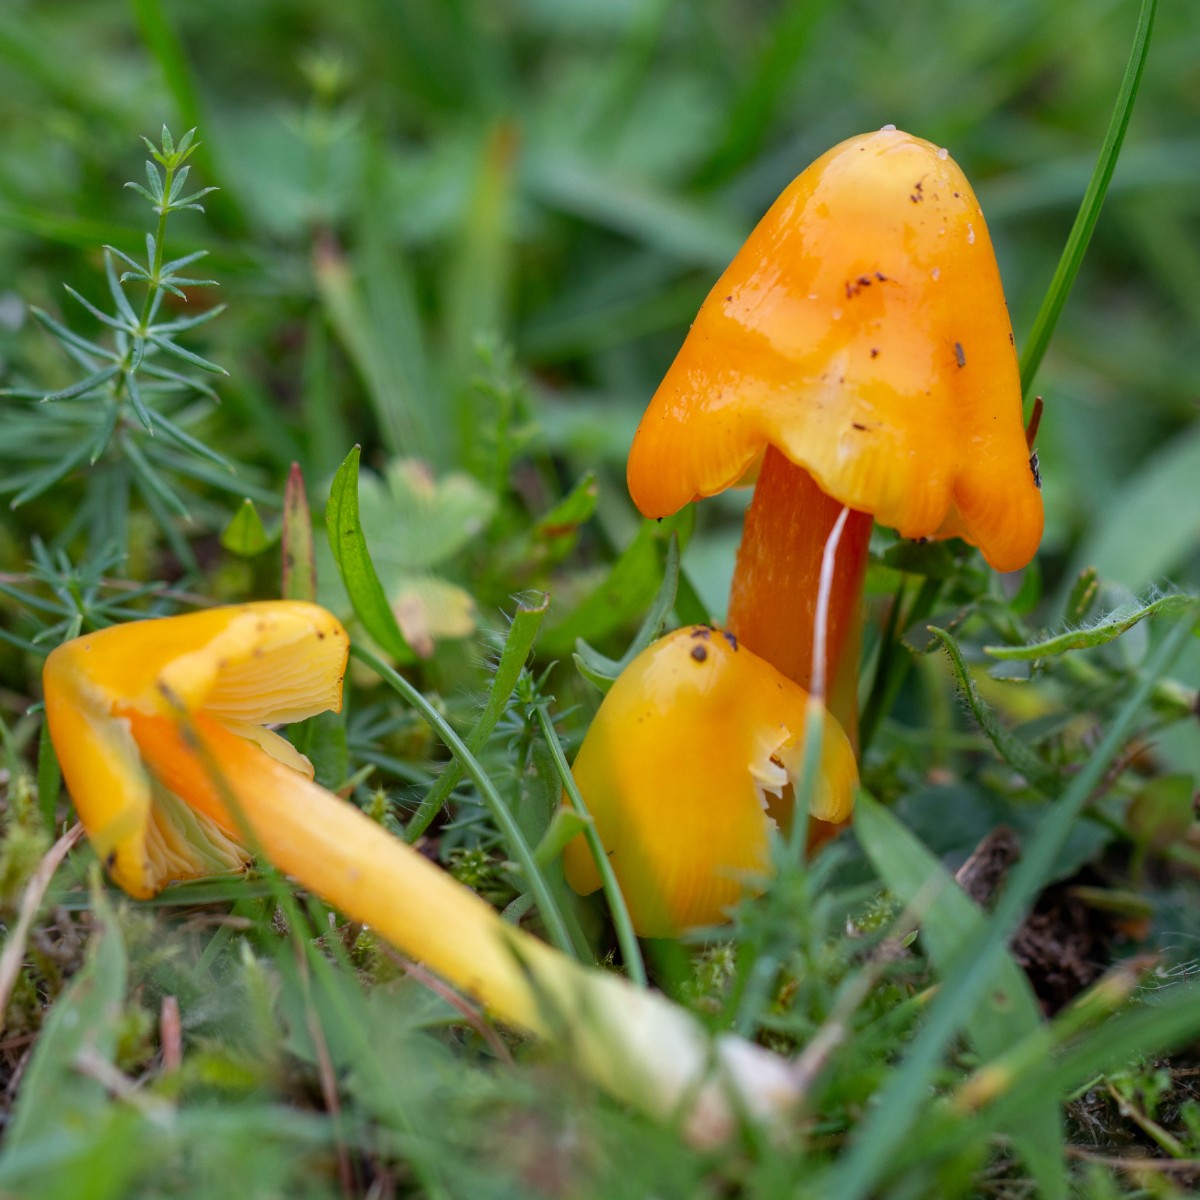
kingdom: Fungi
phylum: Basidiomycota
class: Agaricomycetes
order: Agaricales
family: Hygrophoraceae
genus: Hygrocybe
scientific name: Hygrocybe
